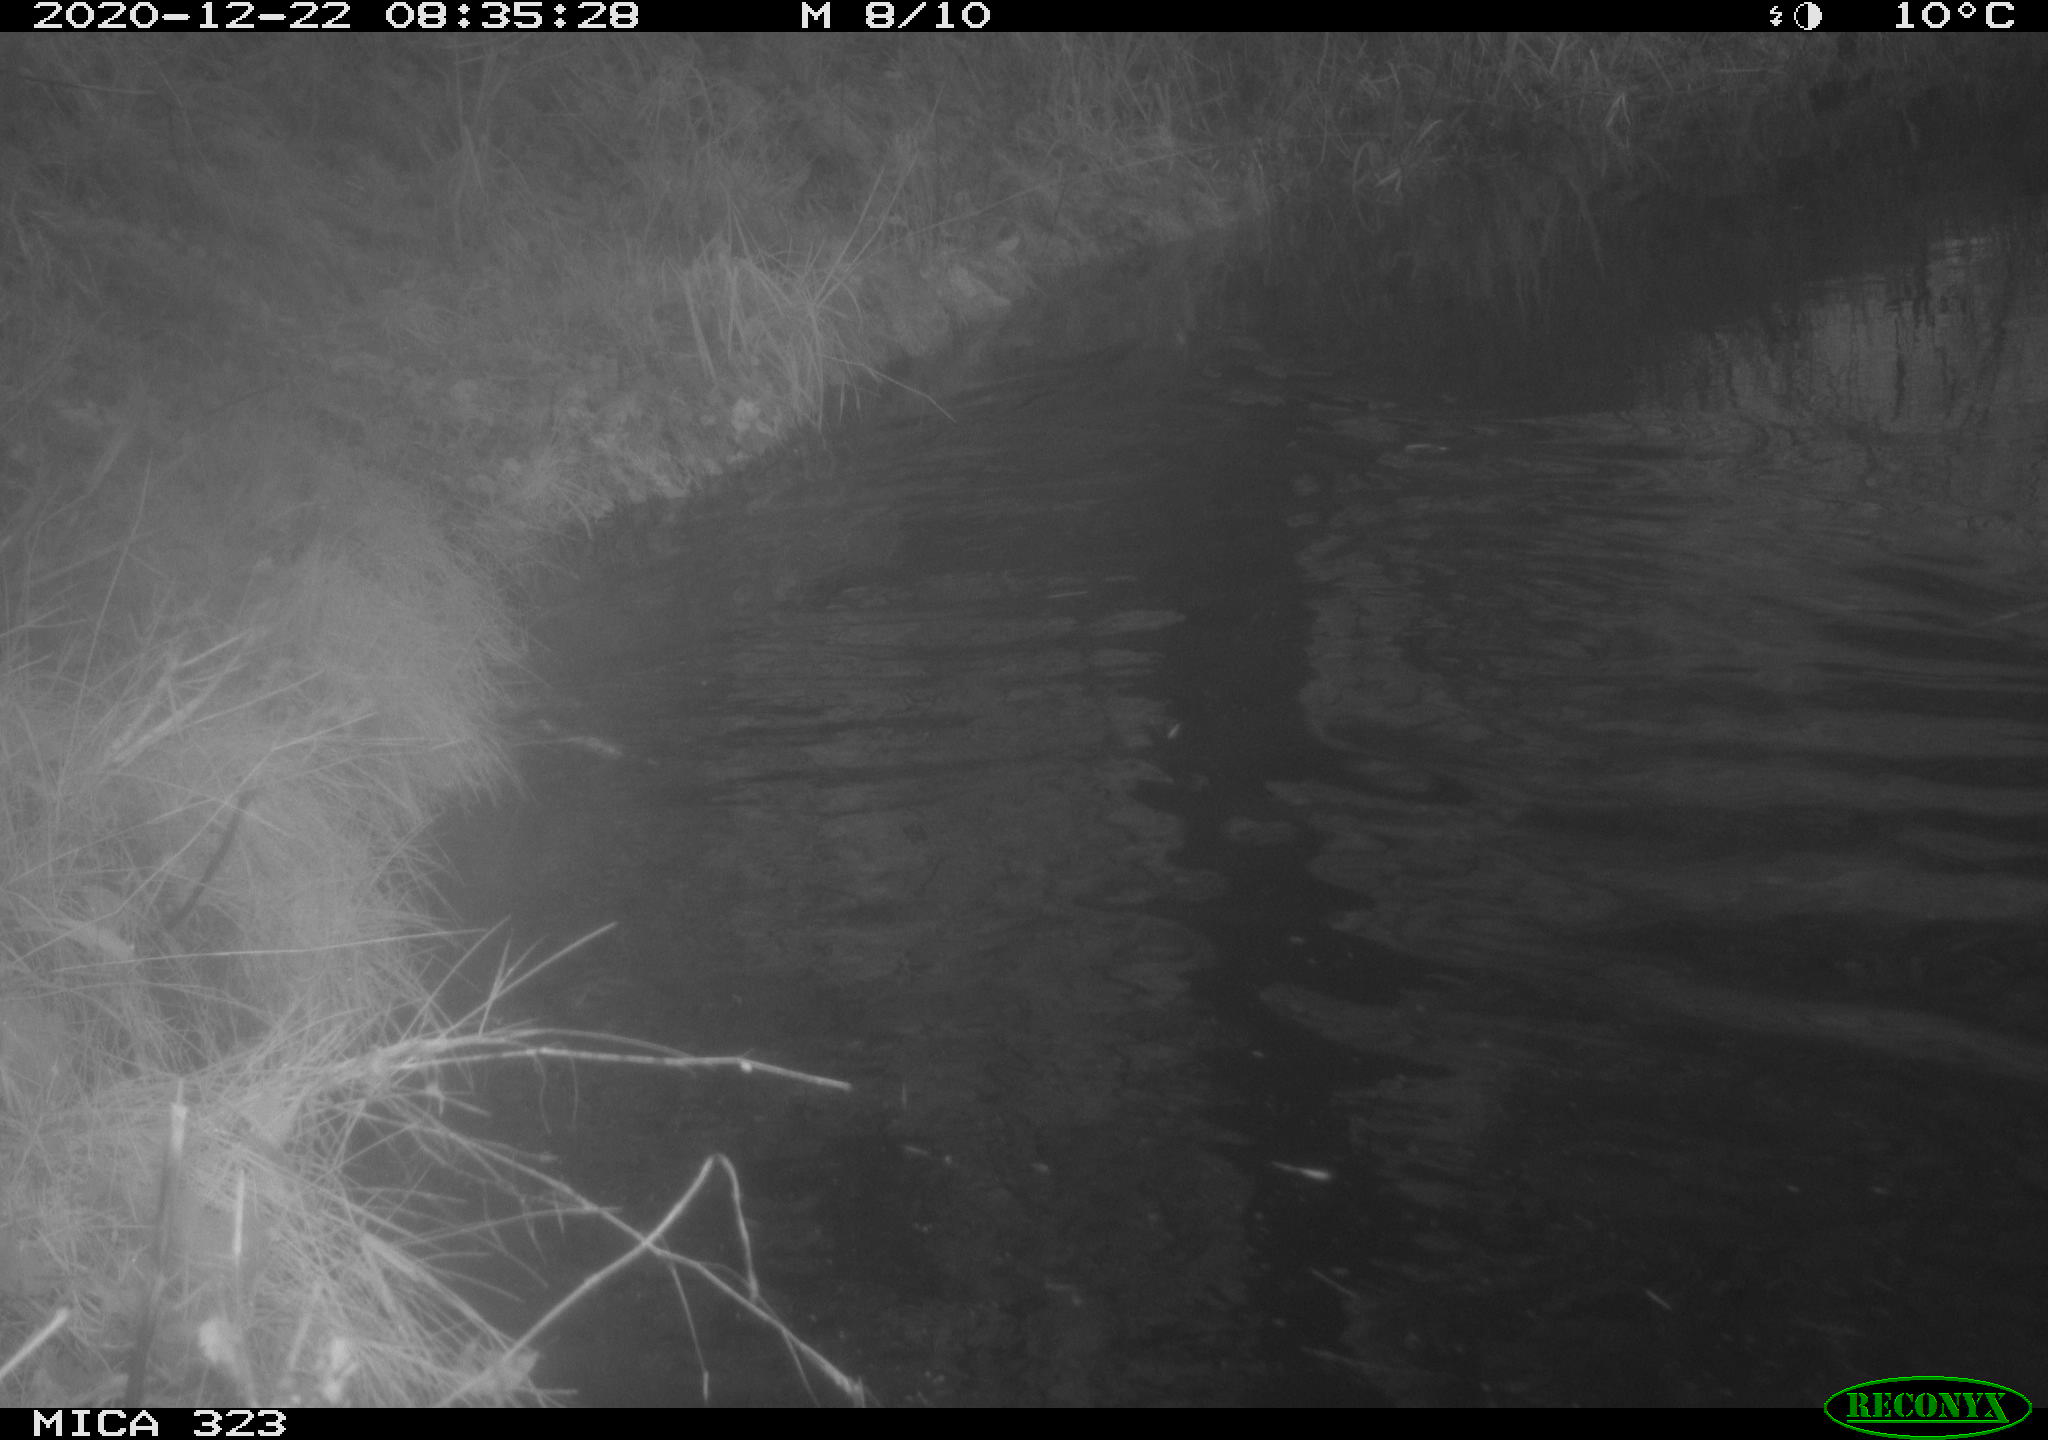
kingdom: Animalia
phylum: Chordata
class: Mammalia
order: Rodentia
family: Myocastoridae
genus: Myocastor
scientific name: Myocastor coypus
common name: Coypu
